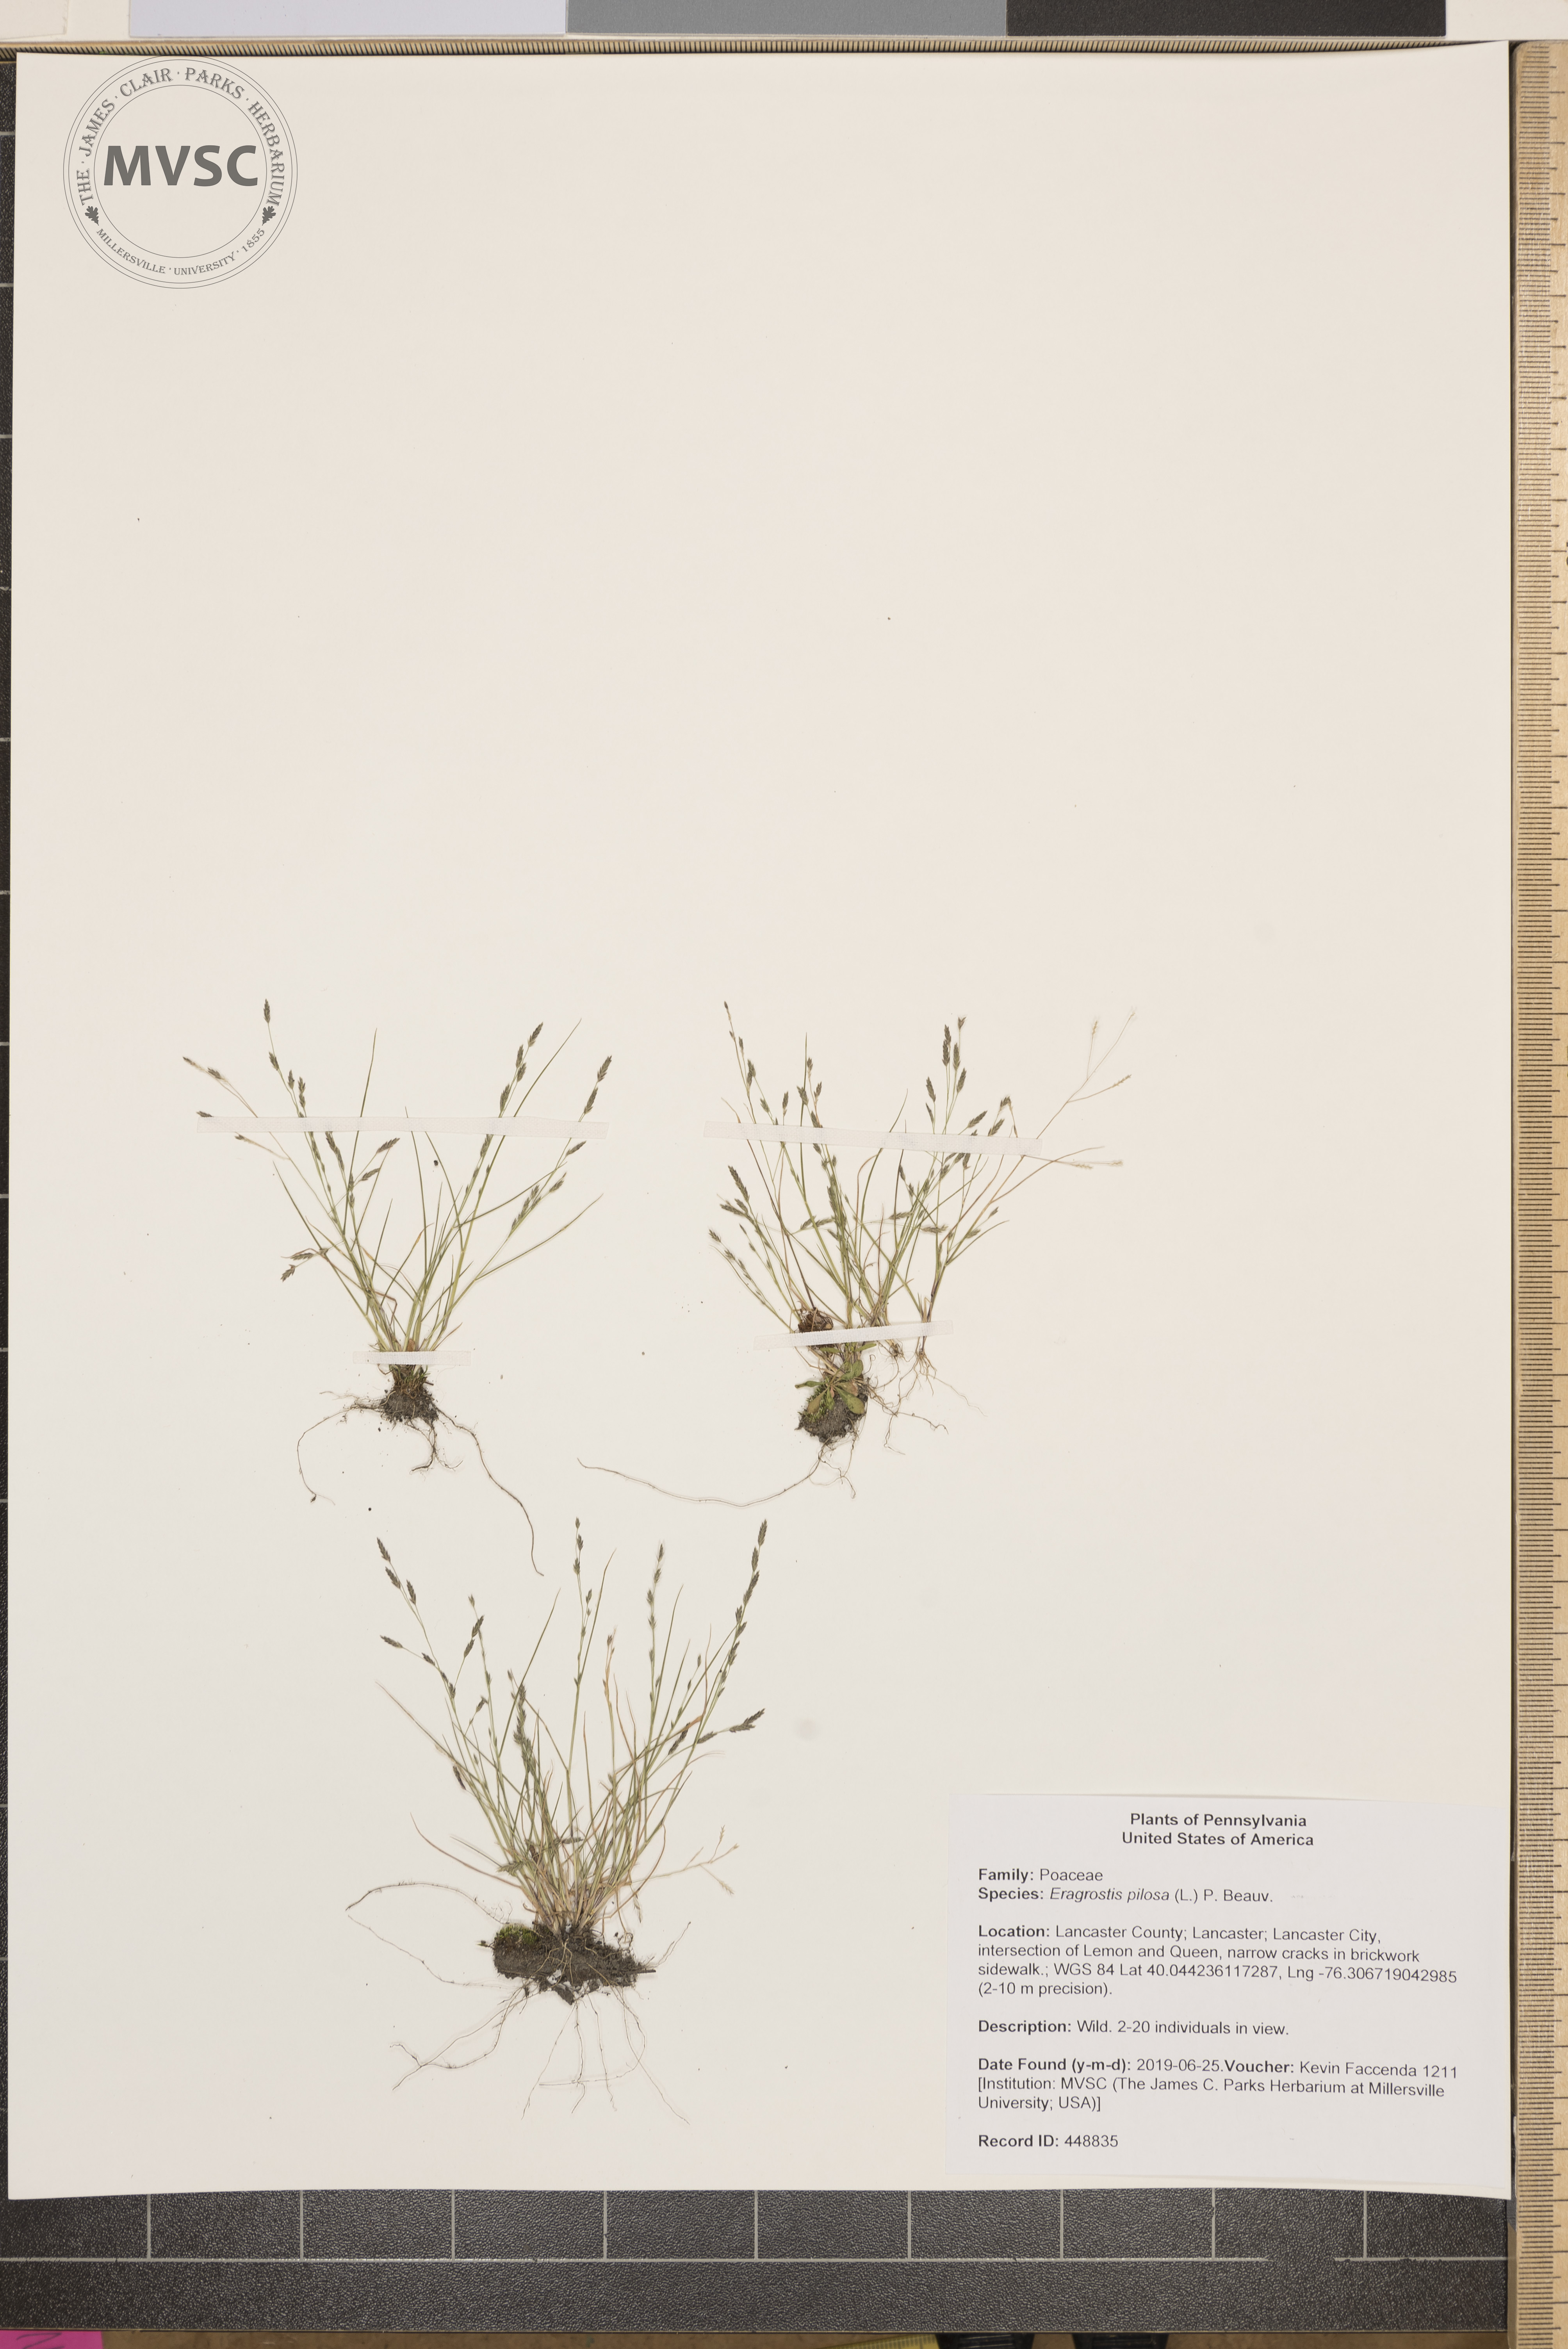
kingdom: Plantae
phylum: Tracheophyta
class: Liliopsida
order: Poales
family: Poaceae
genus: Eragrostis
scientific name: Eragrostis pilosa
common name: Indian lovegrass
